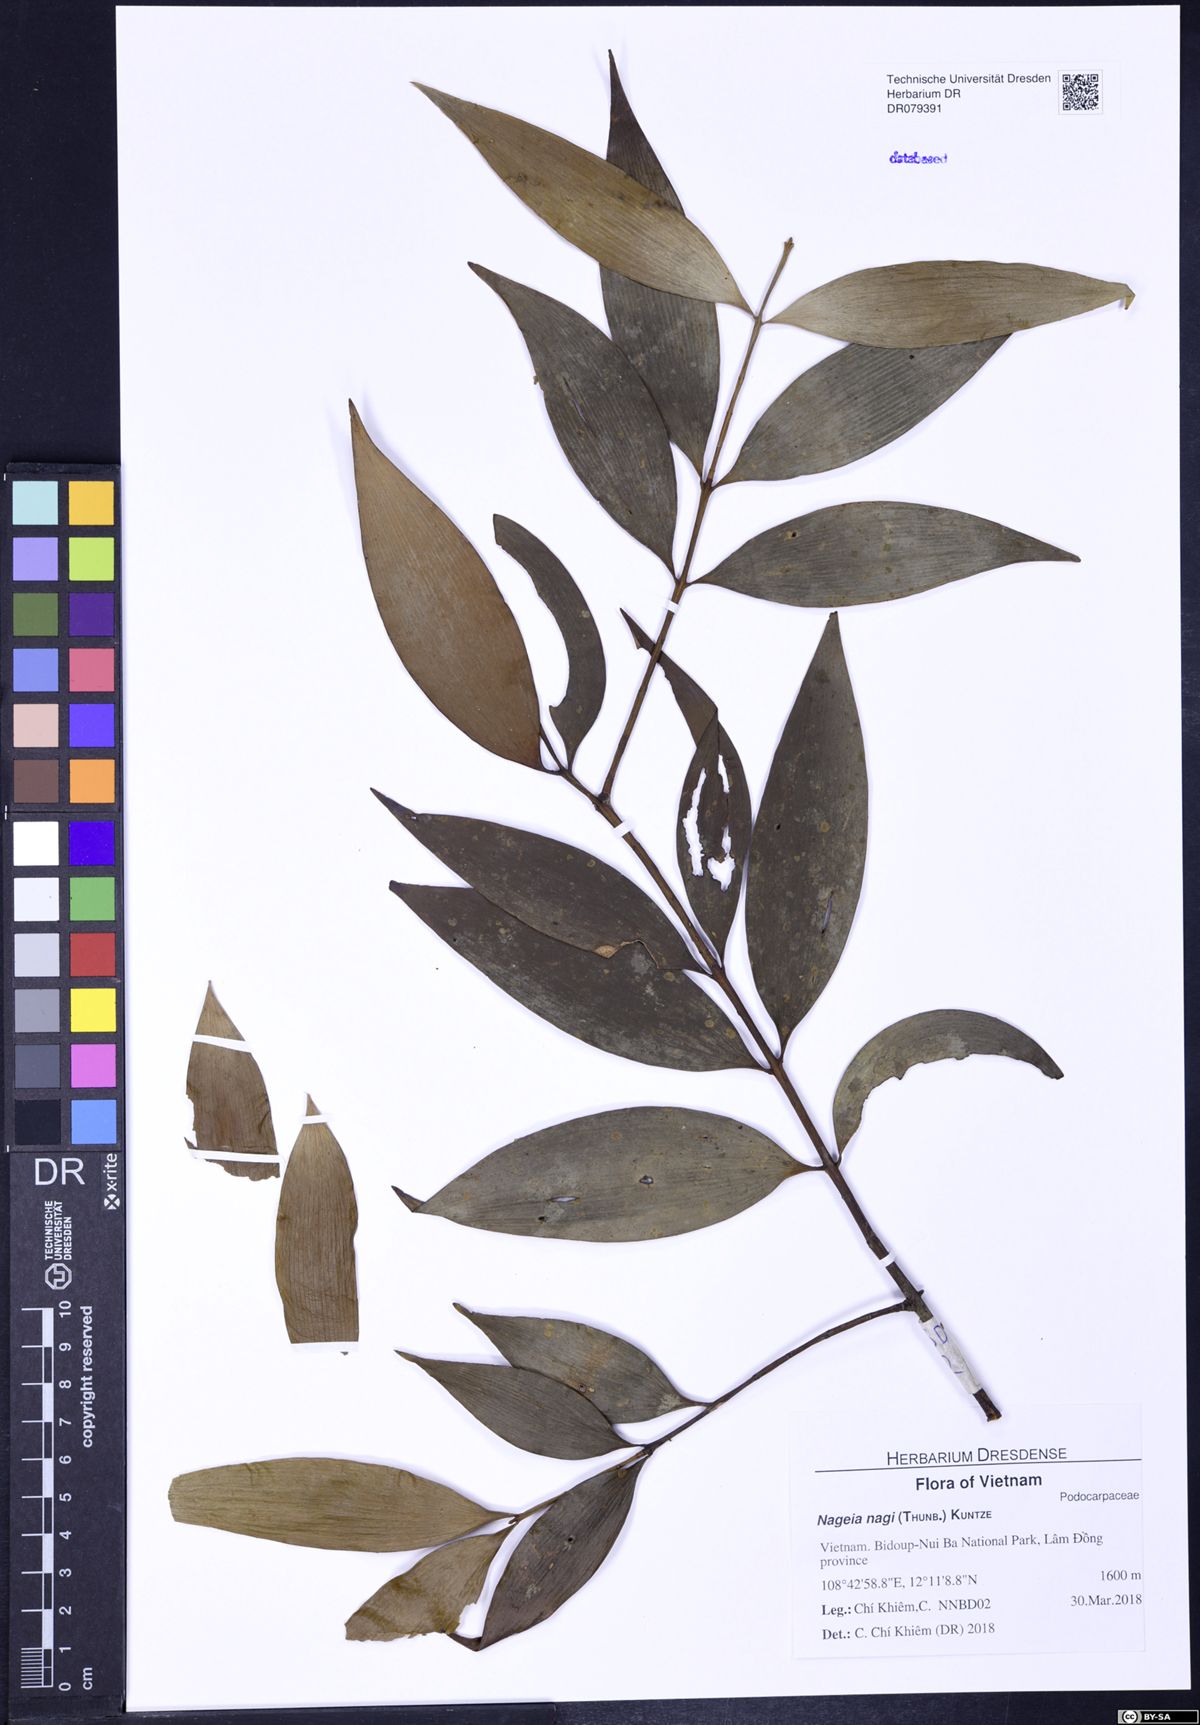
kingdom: Plantae
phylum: Tracheophyta
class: Pinopsida
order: Pinales
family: Podocarpaceae
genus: Nageia
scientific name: Nageia nagi
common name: Kaphal
